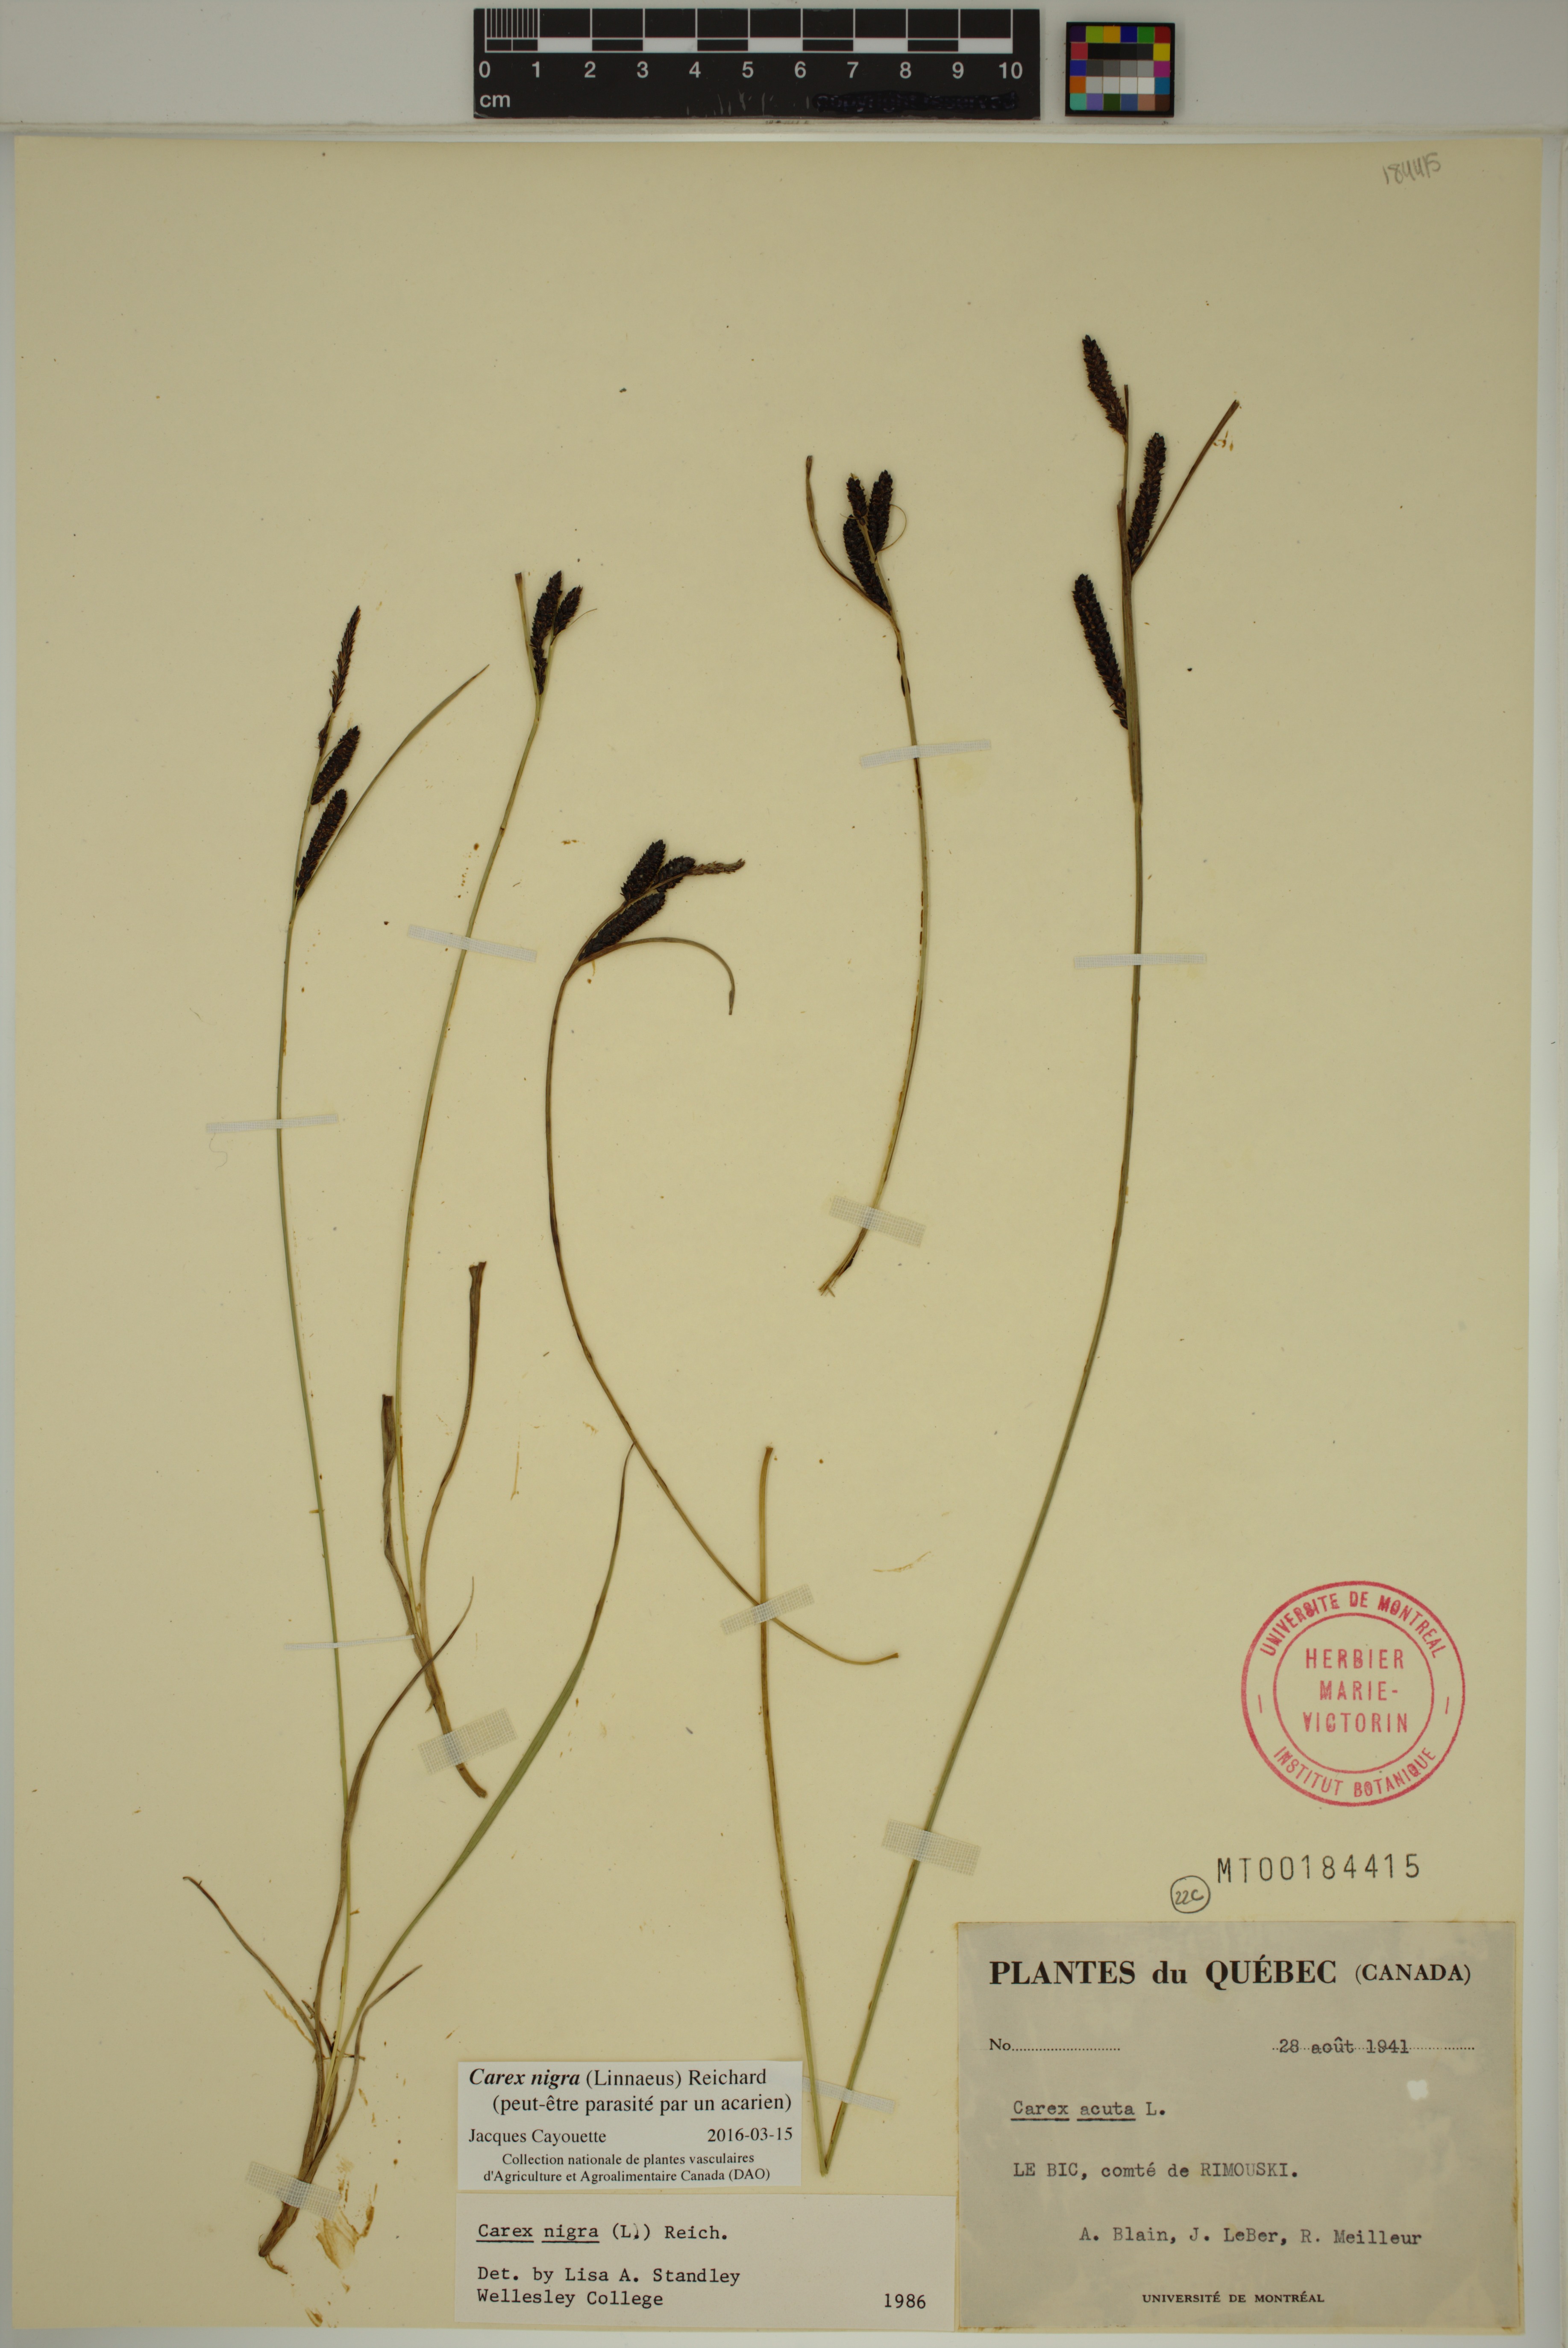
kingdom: Plantae
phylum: Tracheophyta
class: Liliopsida
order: Poales
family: Cyperaceae
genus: Carex
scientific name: Carex nigra
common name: Common sedge
